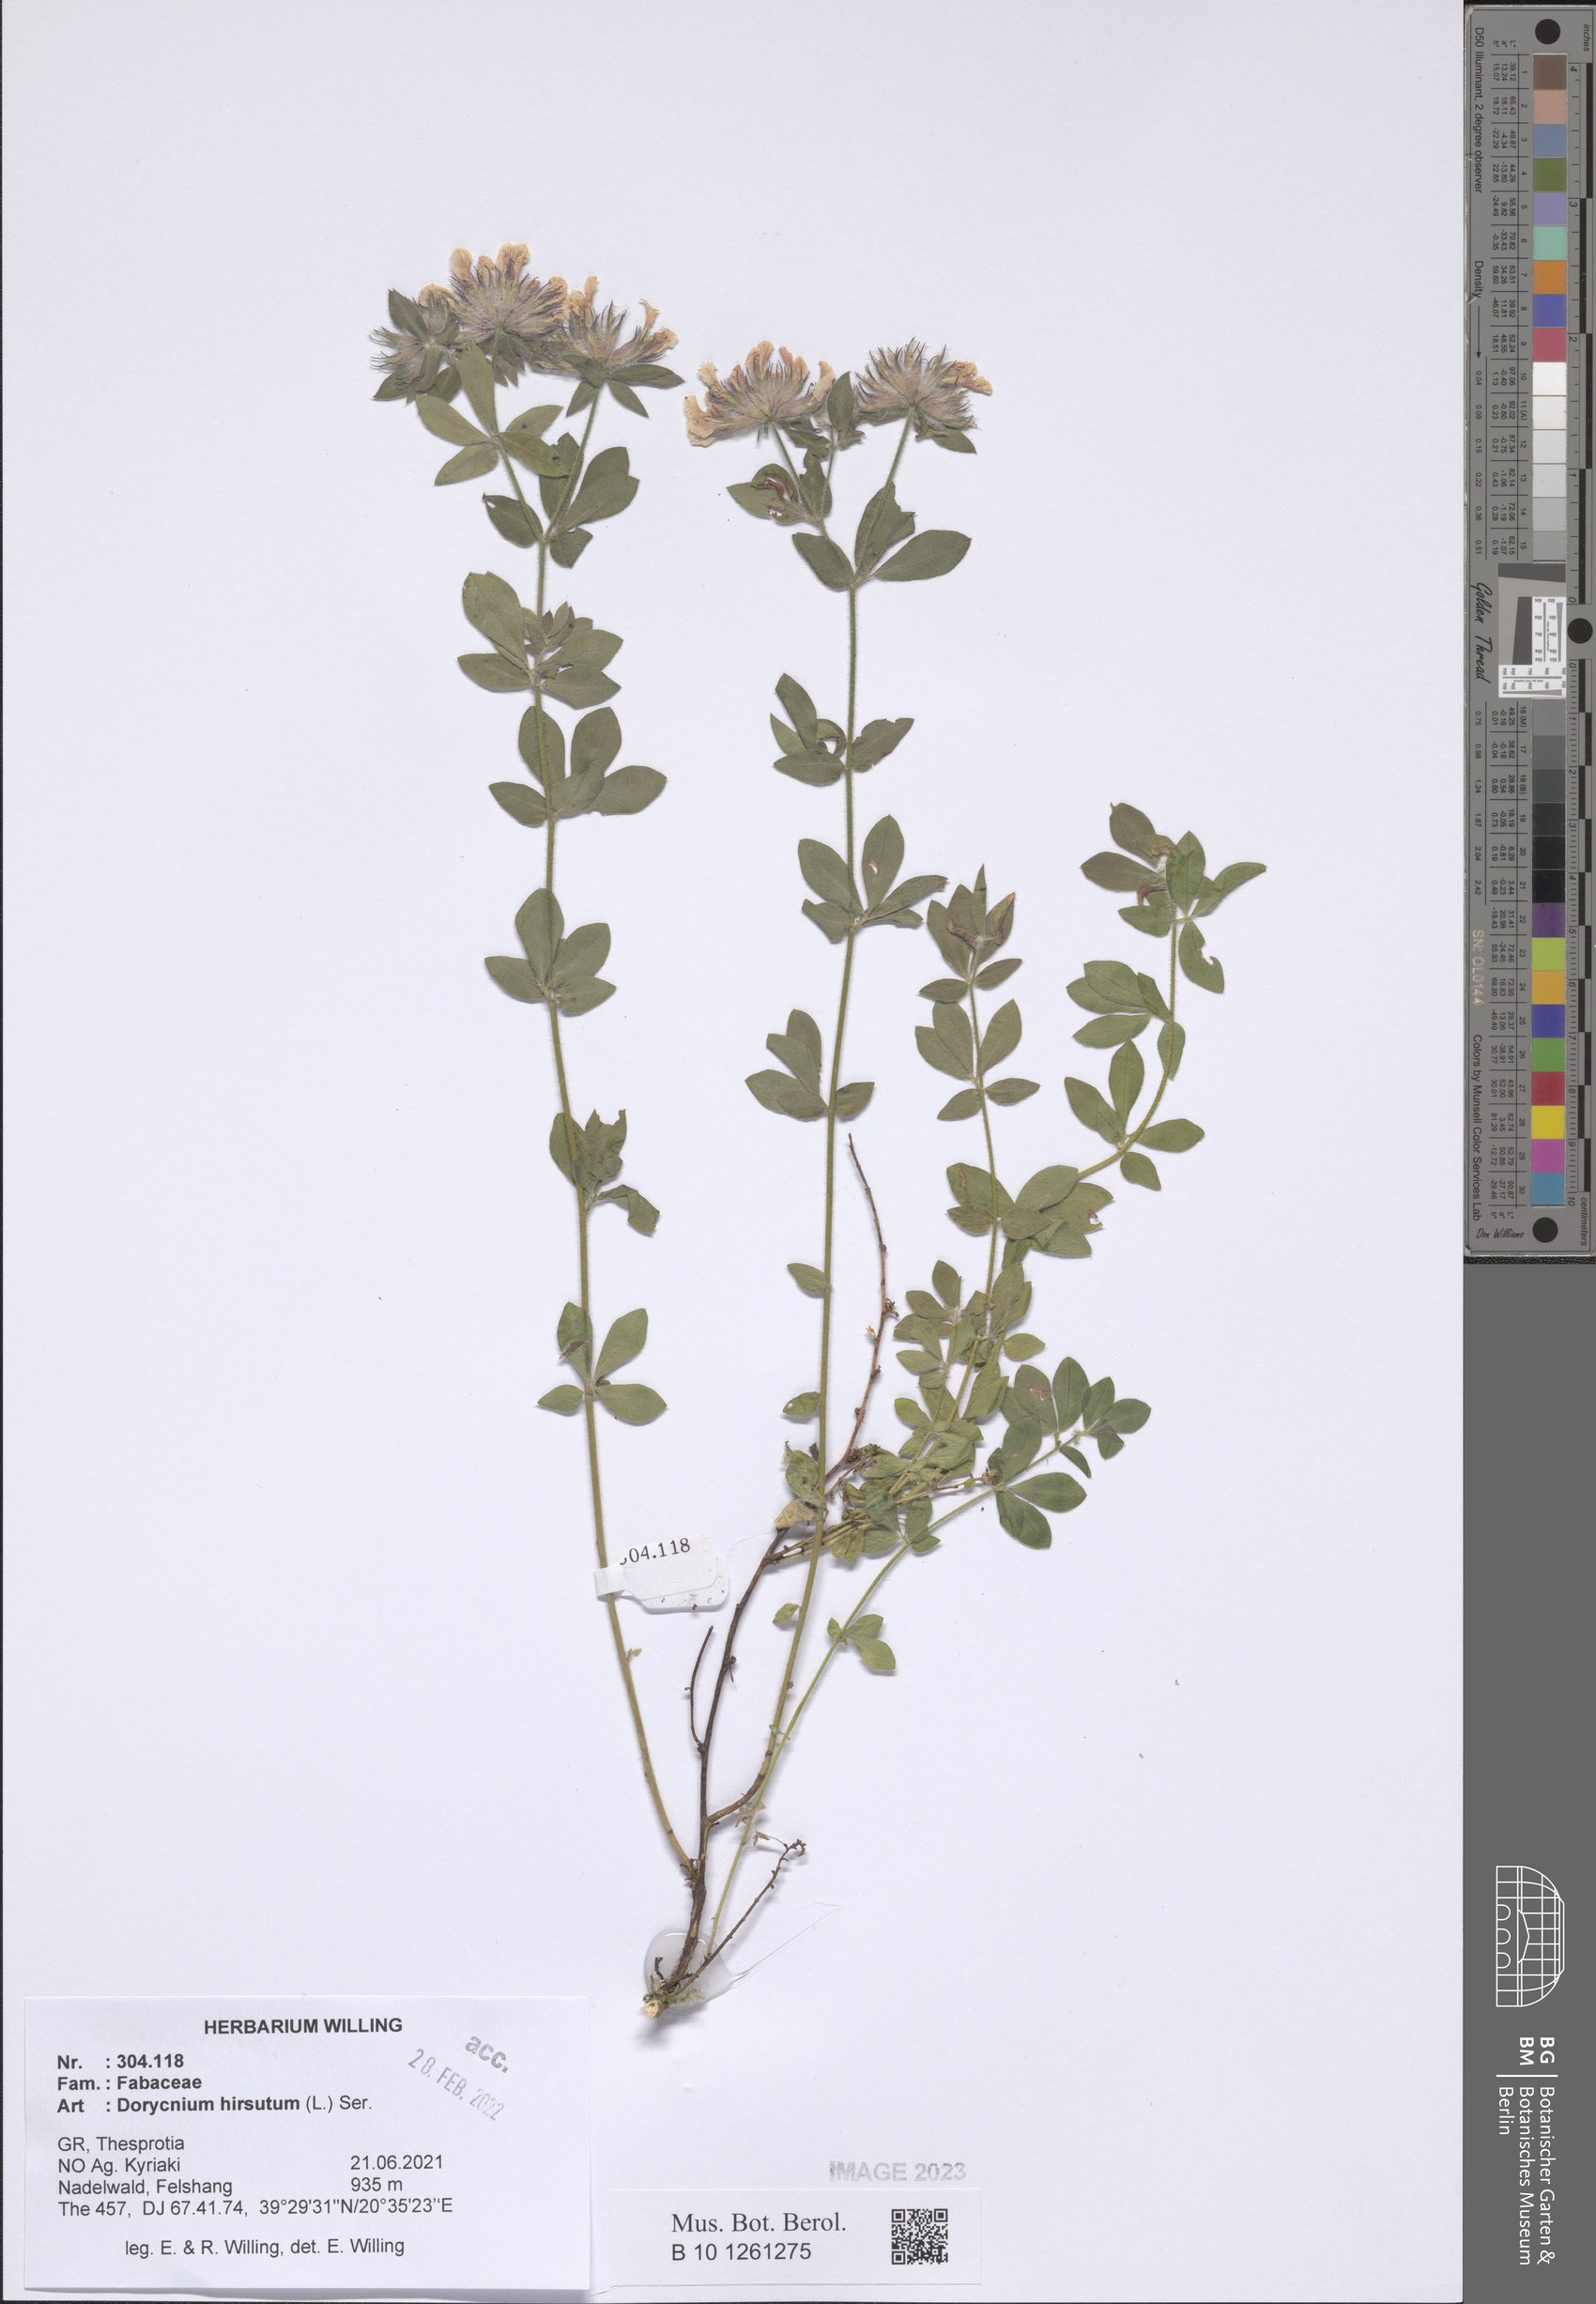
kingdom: Plantae
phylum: Tracheophyta
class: Magnoliopsida
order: Fabales
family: Fabaceae
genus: Lotus
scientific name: Lotus hirsutus
